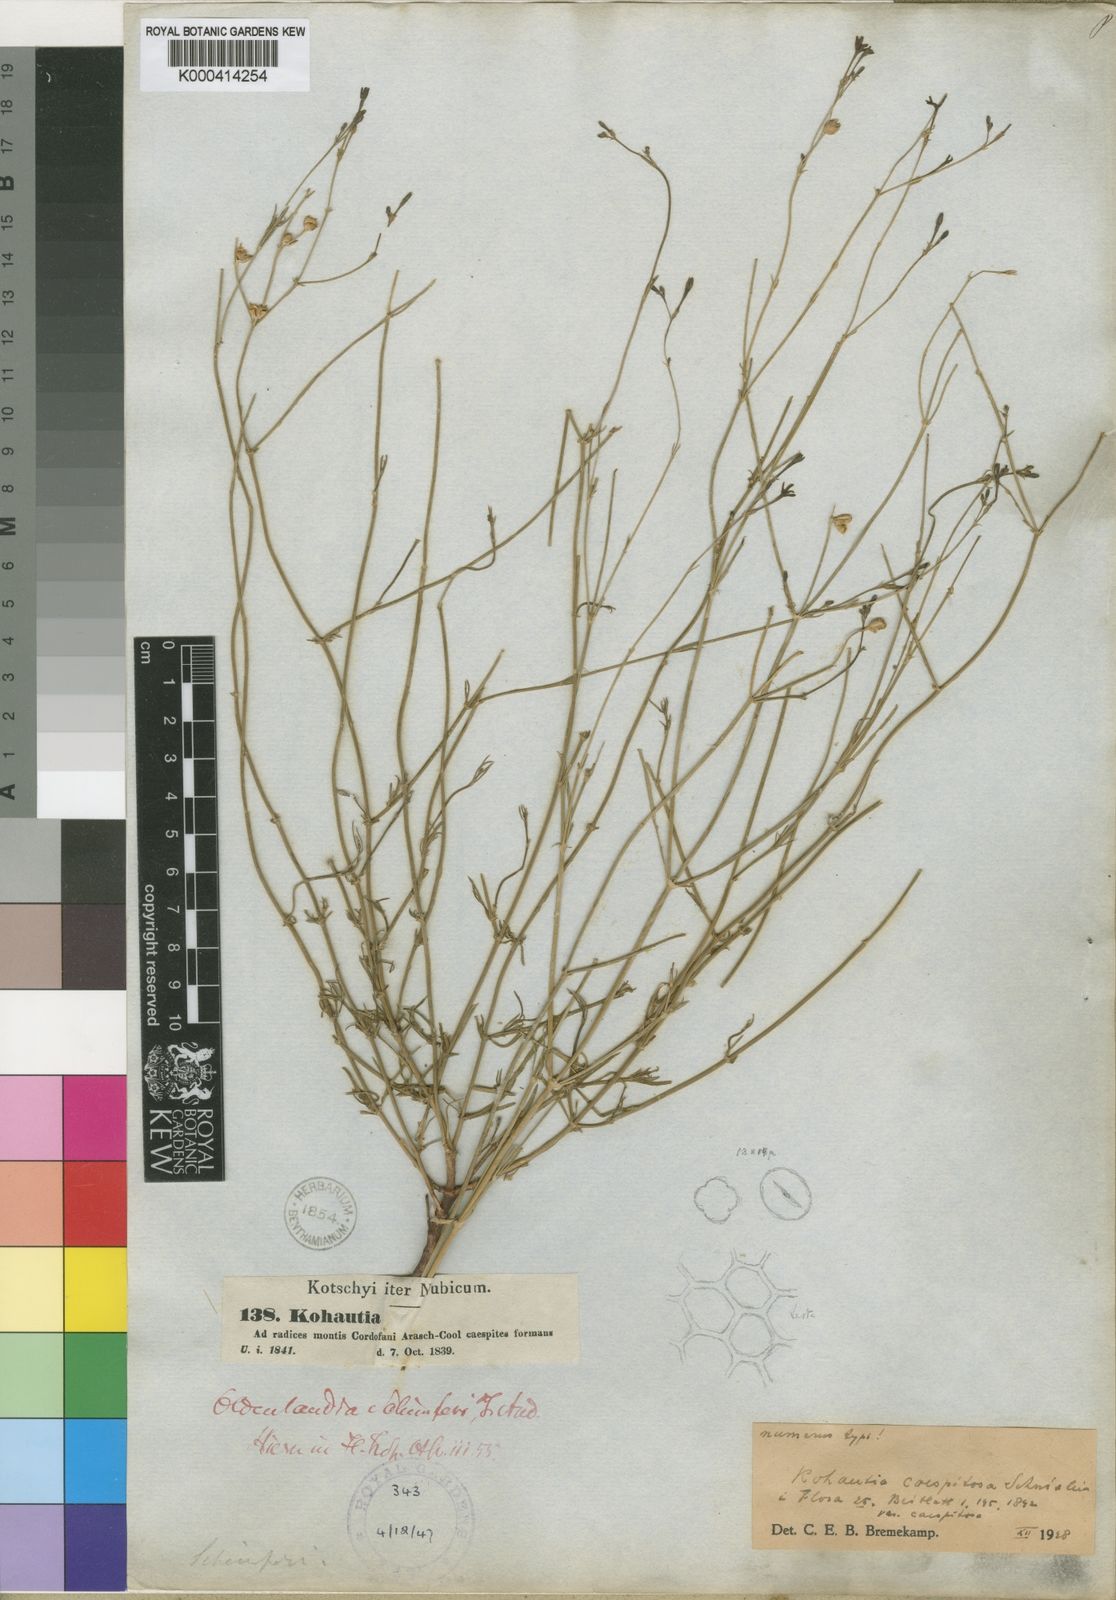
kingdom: Plantae
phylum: Tracheophyta
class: Magnoliopsida
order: Gentianales
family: Rubiaceae
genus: Kohautia
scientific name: Kohautia caespitosa
